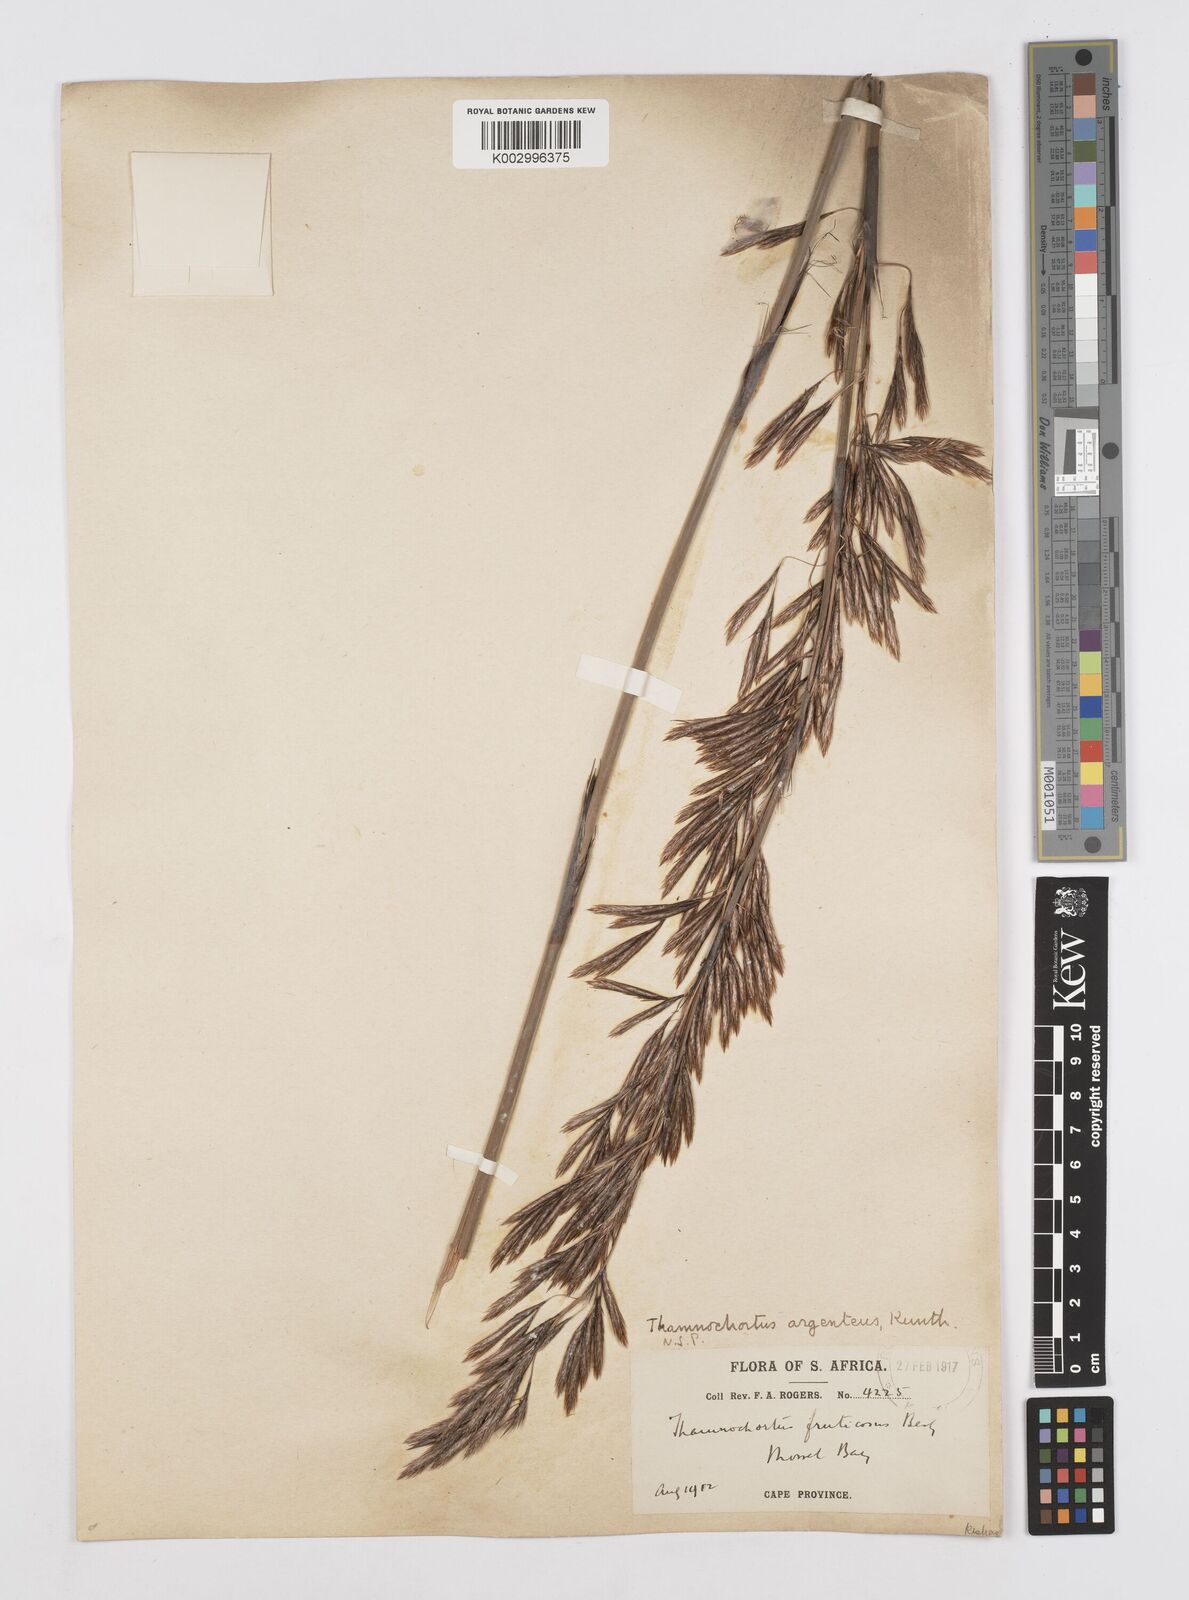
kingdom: Plantae
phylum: Tracheophyta
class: Liliopsida
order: Poales
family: Restionaceae
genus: Hypodiscus
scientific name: Hypodiscus argenteus
